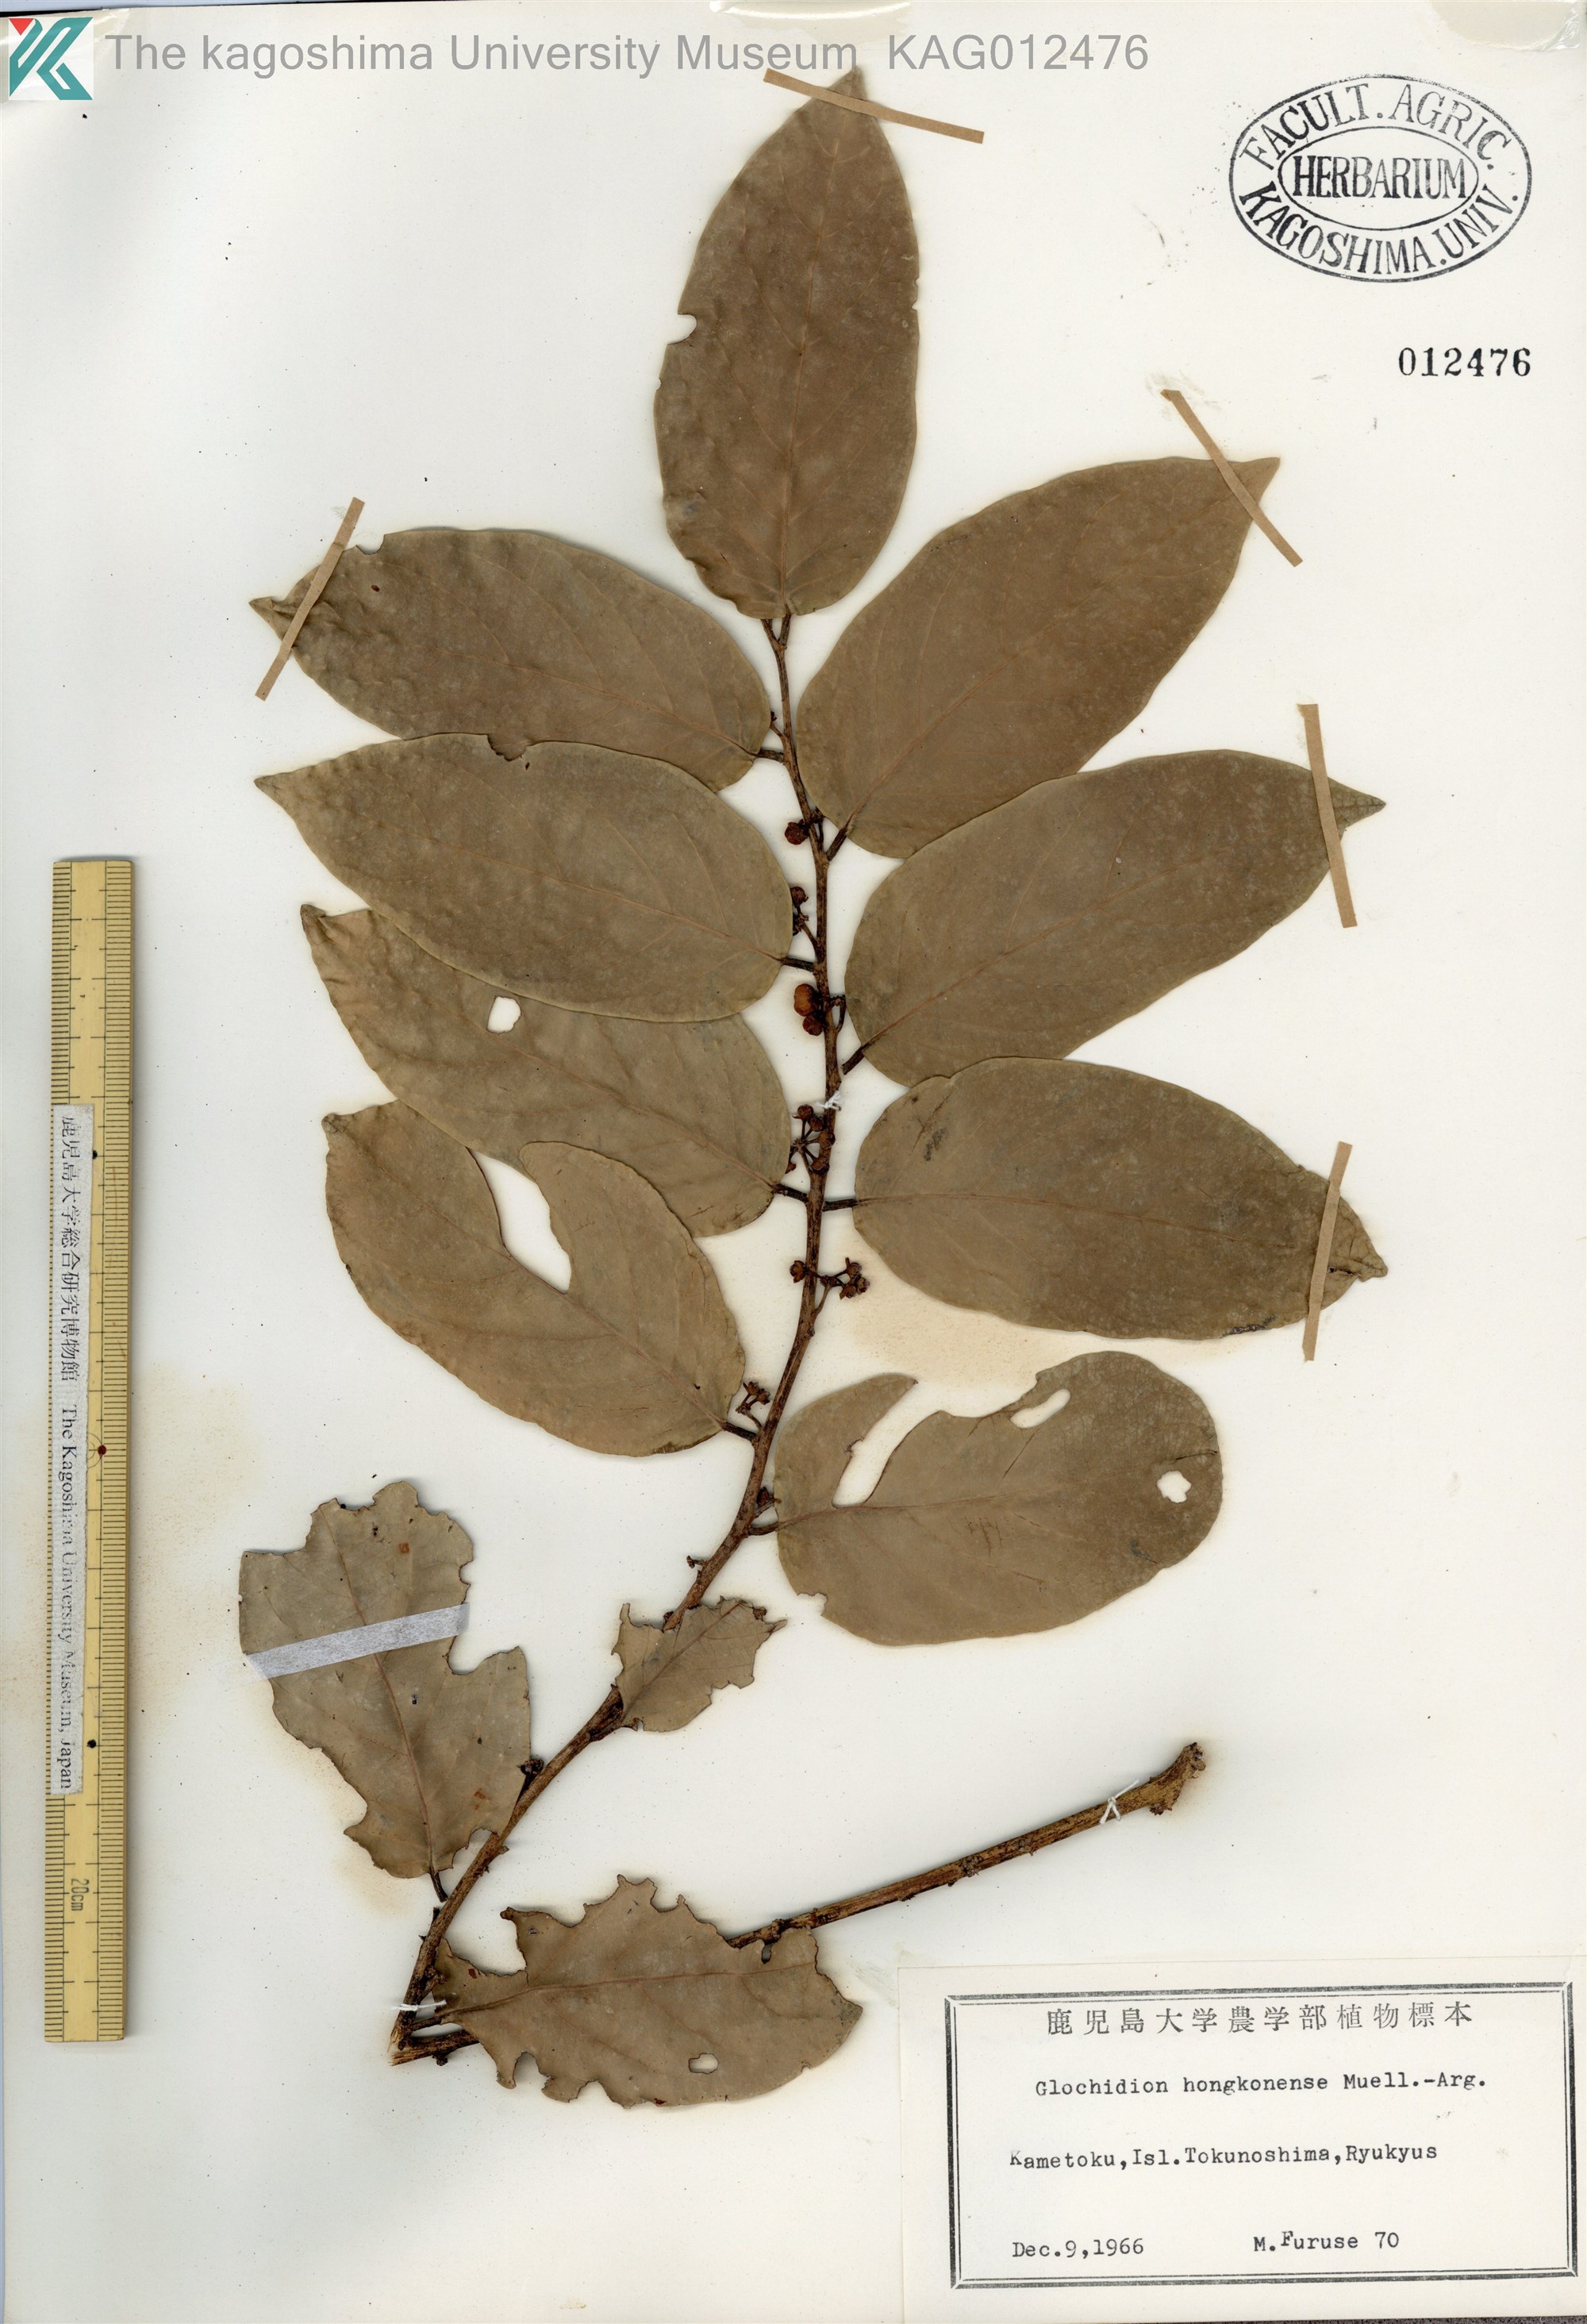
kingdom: Plantae
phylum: Tracheophyta
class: Magnoliopsida
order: Malpighiales
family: Phyllanthaceae
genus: Glochidion
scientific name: Glochidion zeylanicum
